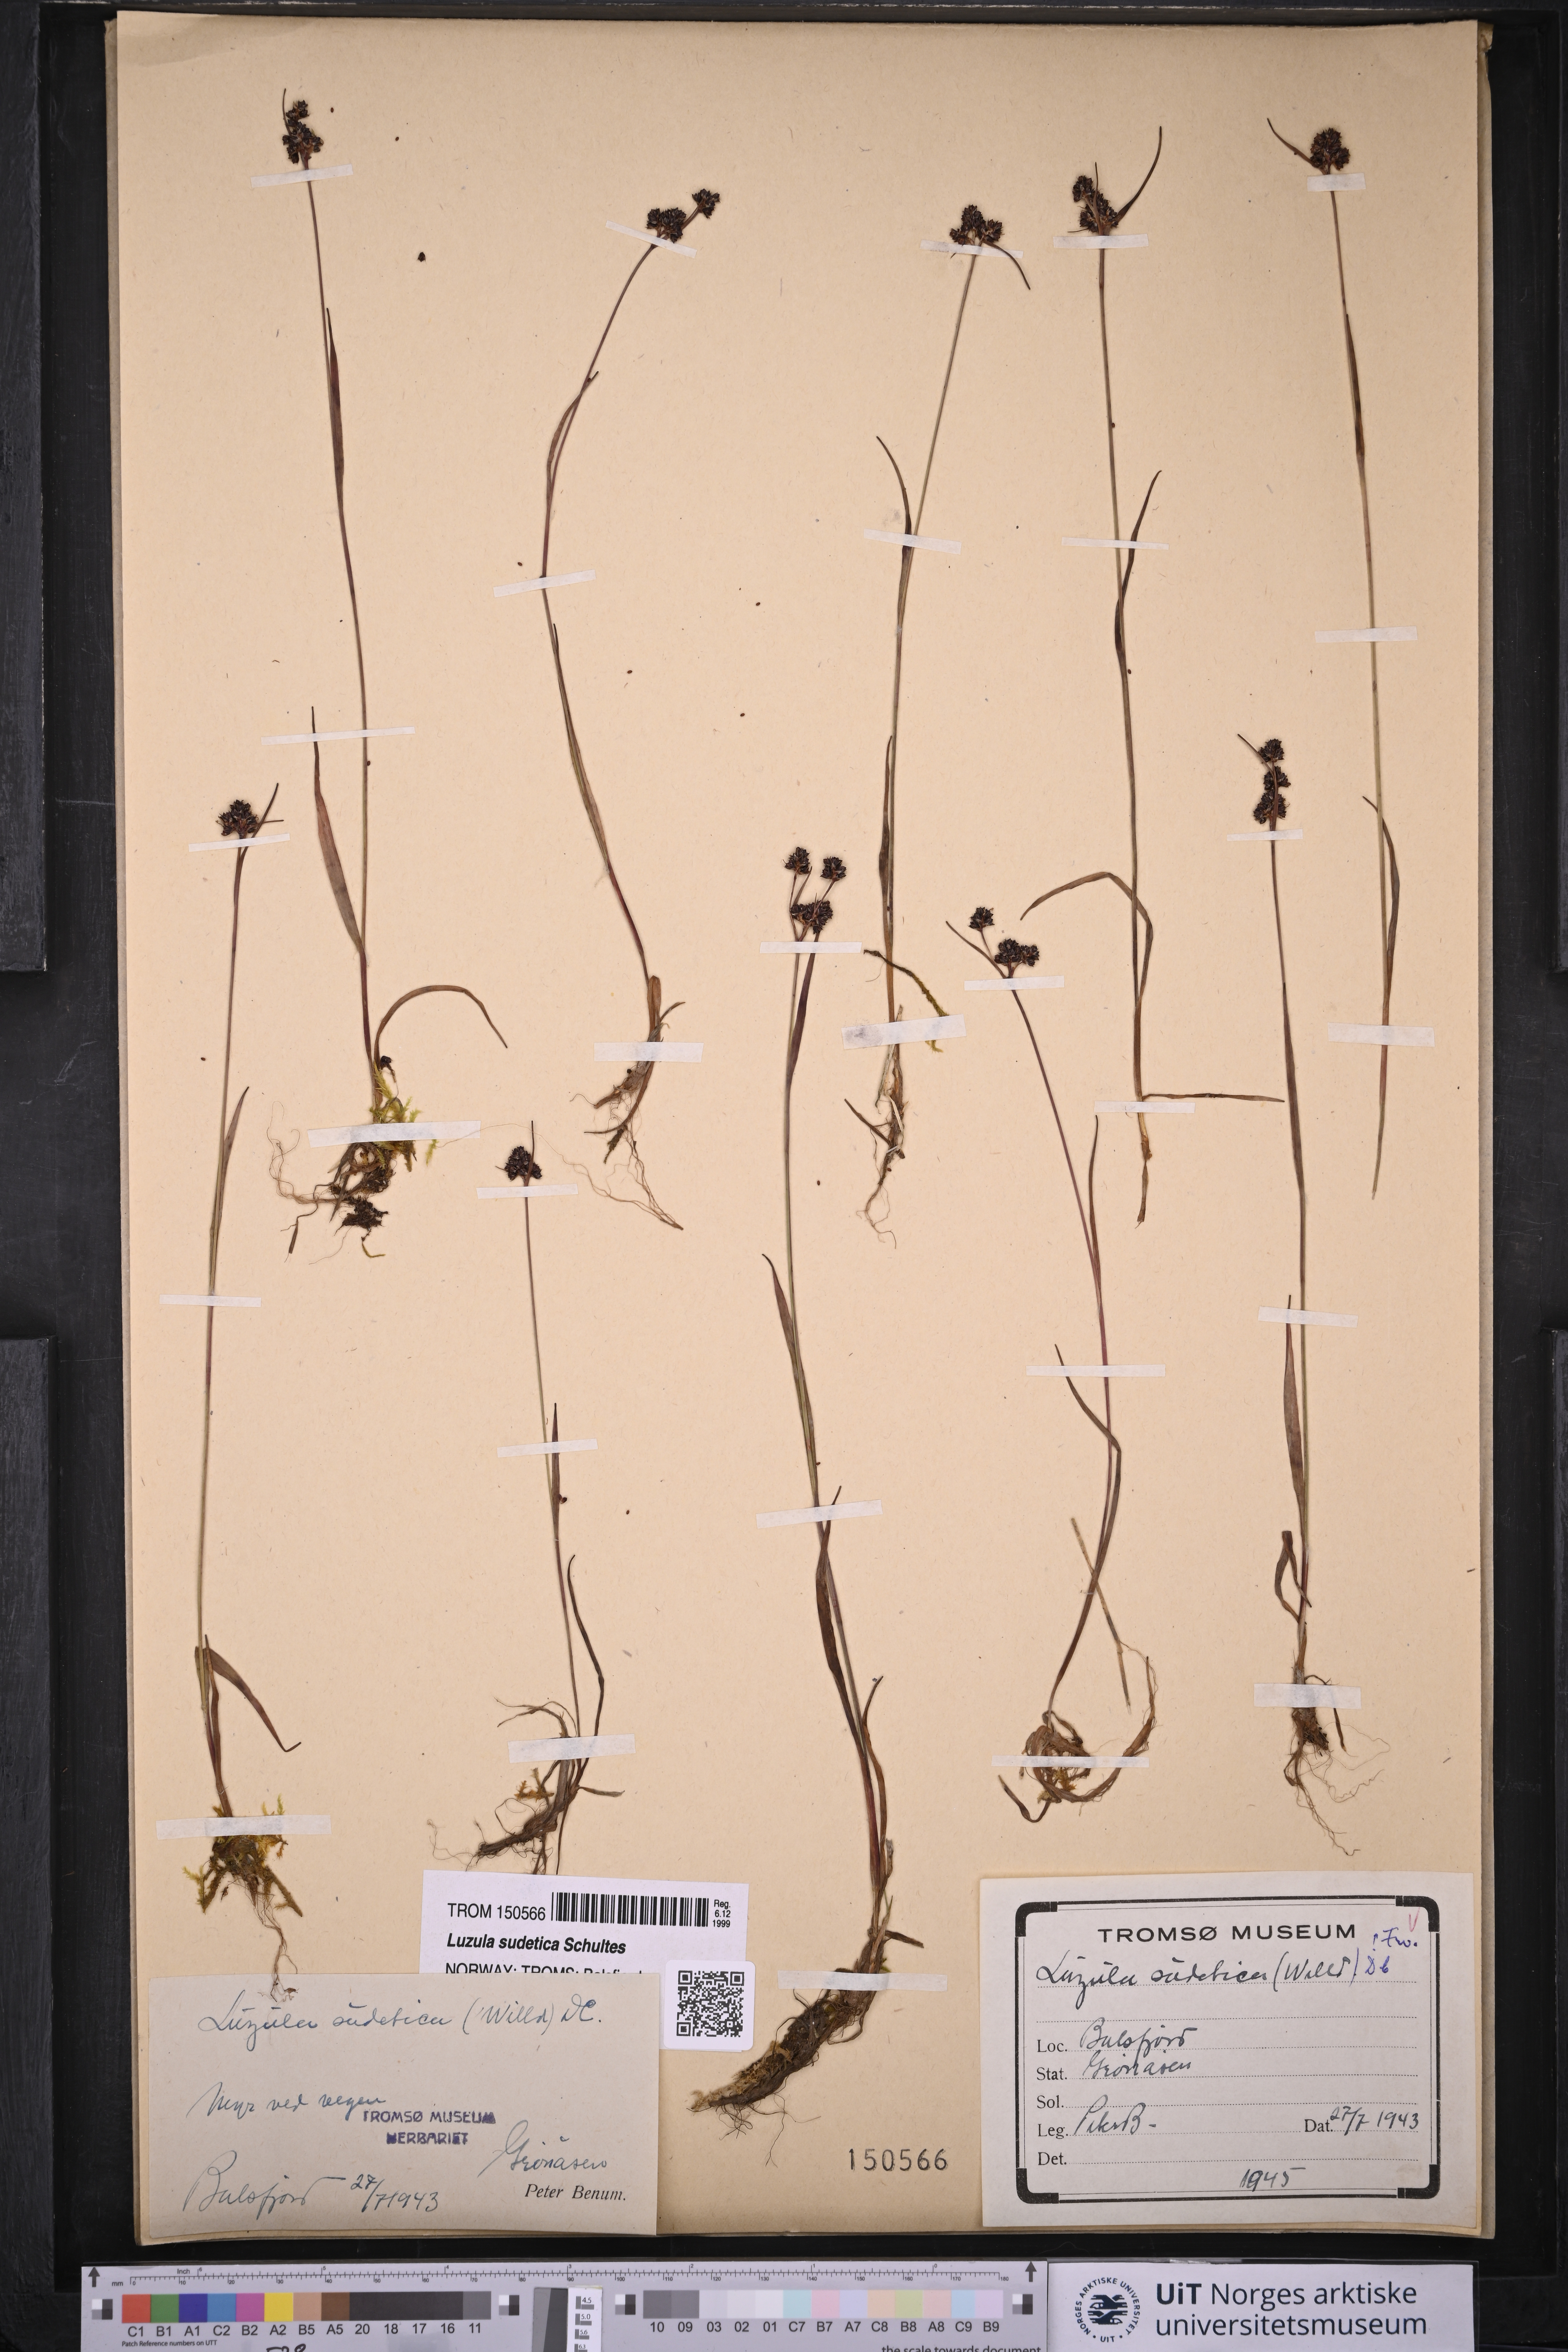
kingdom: Plantae
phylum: Tracheophyta
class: Liliopsida
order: Poales
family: Juncaceae
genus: Luzula
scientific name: Luzula sudetica
